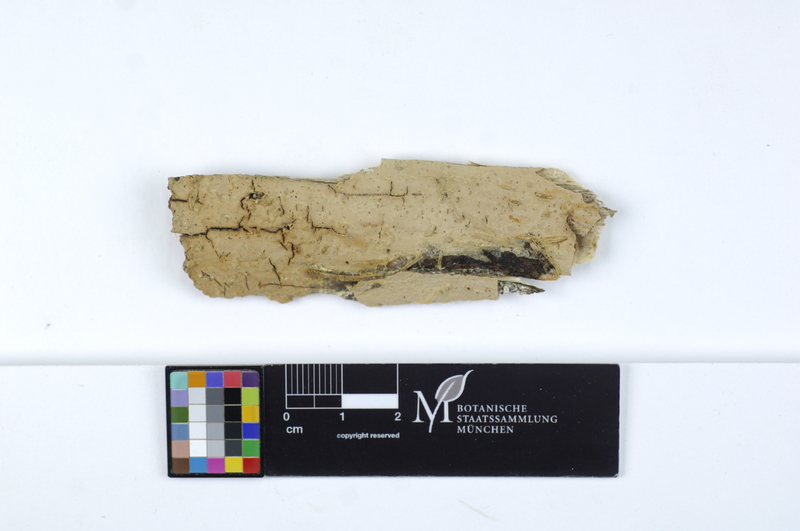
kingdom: Fungi
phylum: Basidiomycota
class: Agaricomycetes
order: Russulales
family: Stereaceae
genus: Gloeocystidiellum
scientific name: Gloeocystidiellum luridum
